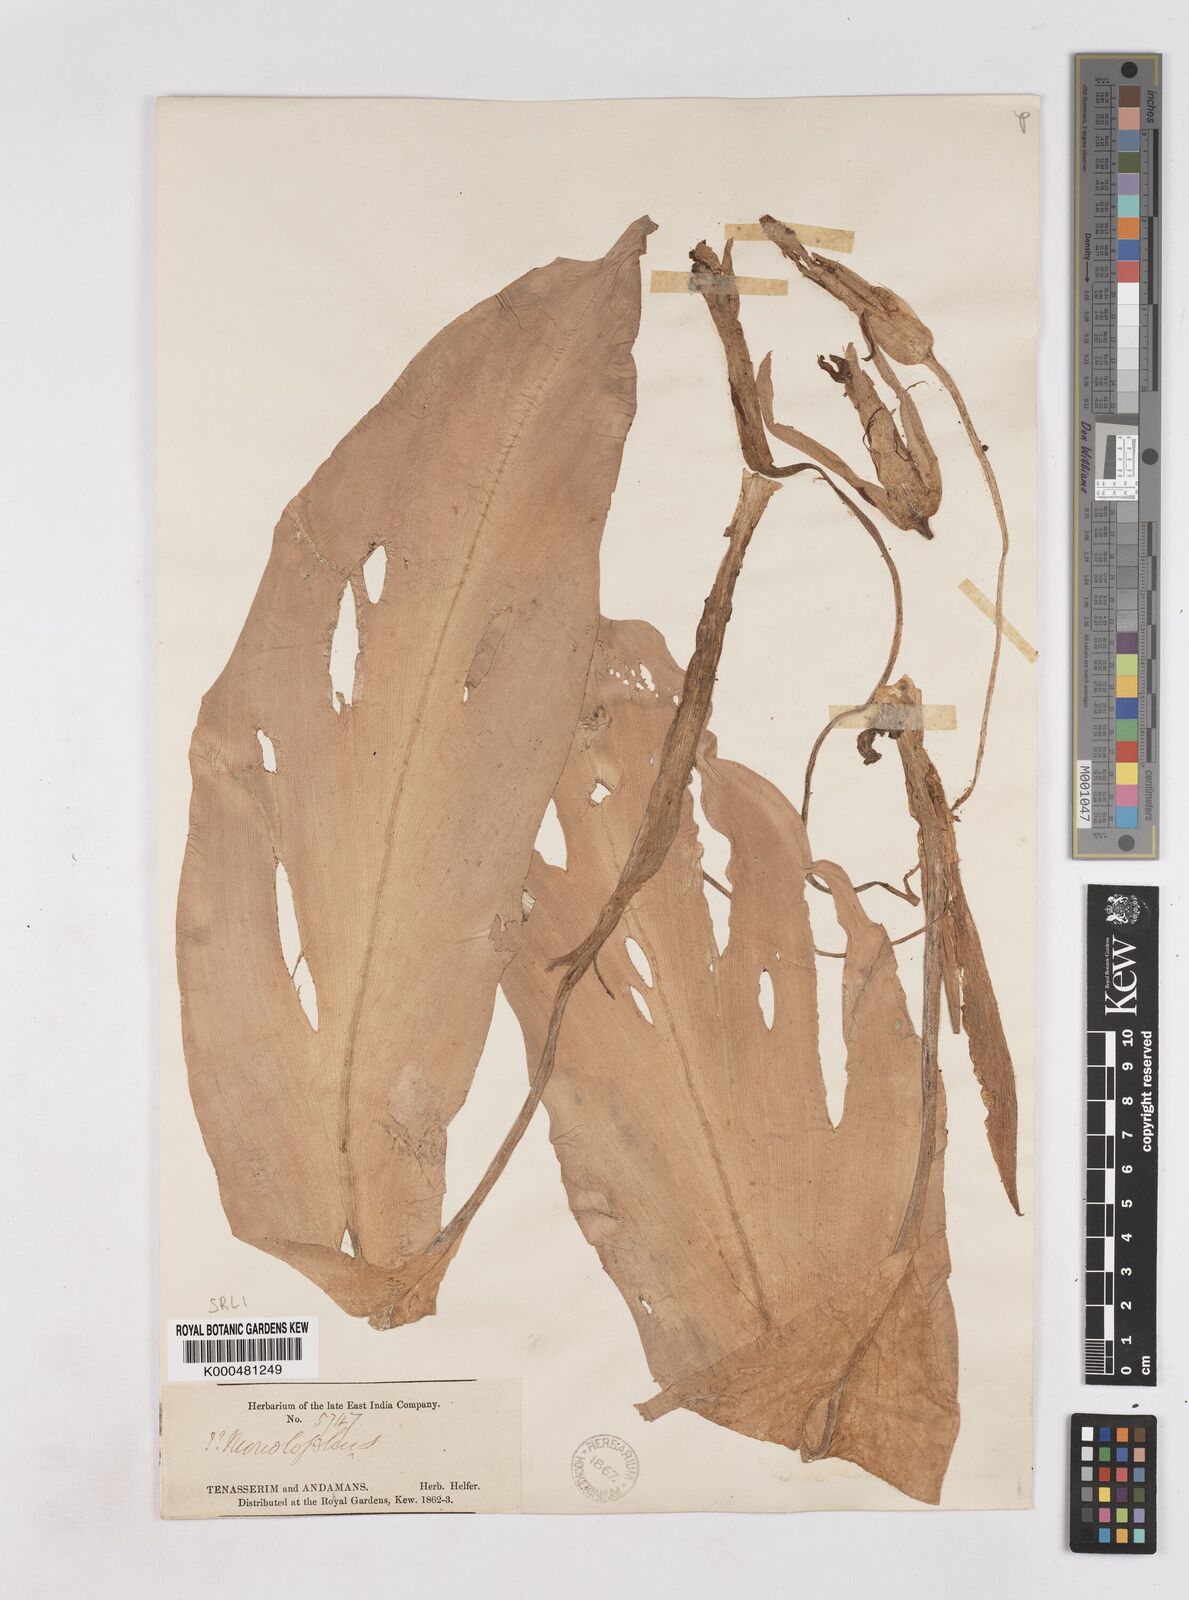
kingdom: Plantae
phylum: Tracheophyta
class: Liliopsida
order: Zingiberales
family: Zingiberaceae
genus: Boesenbergia
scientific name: Boesenbergia rotunda
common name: Chinese ginger
